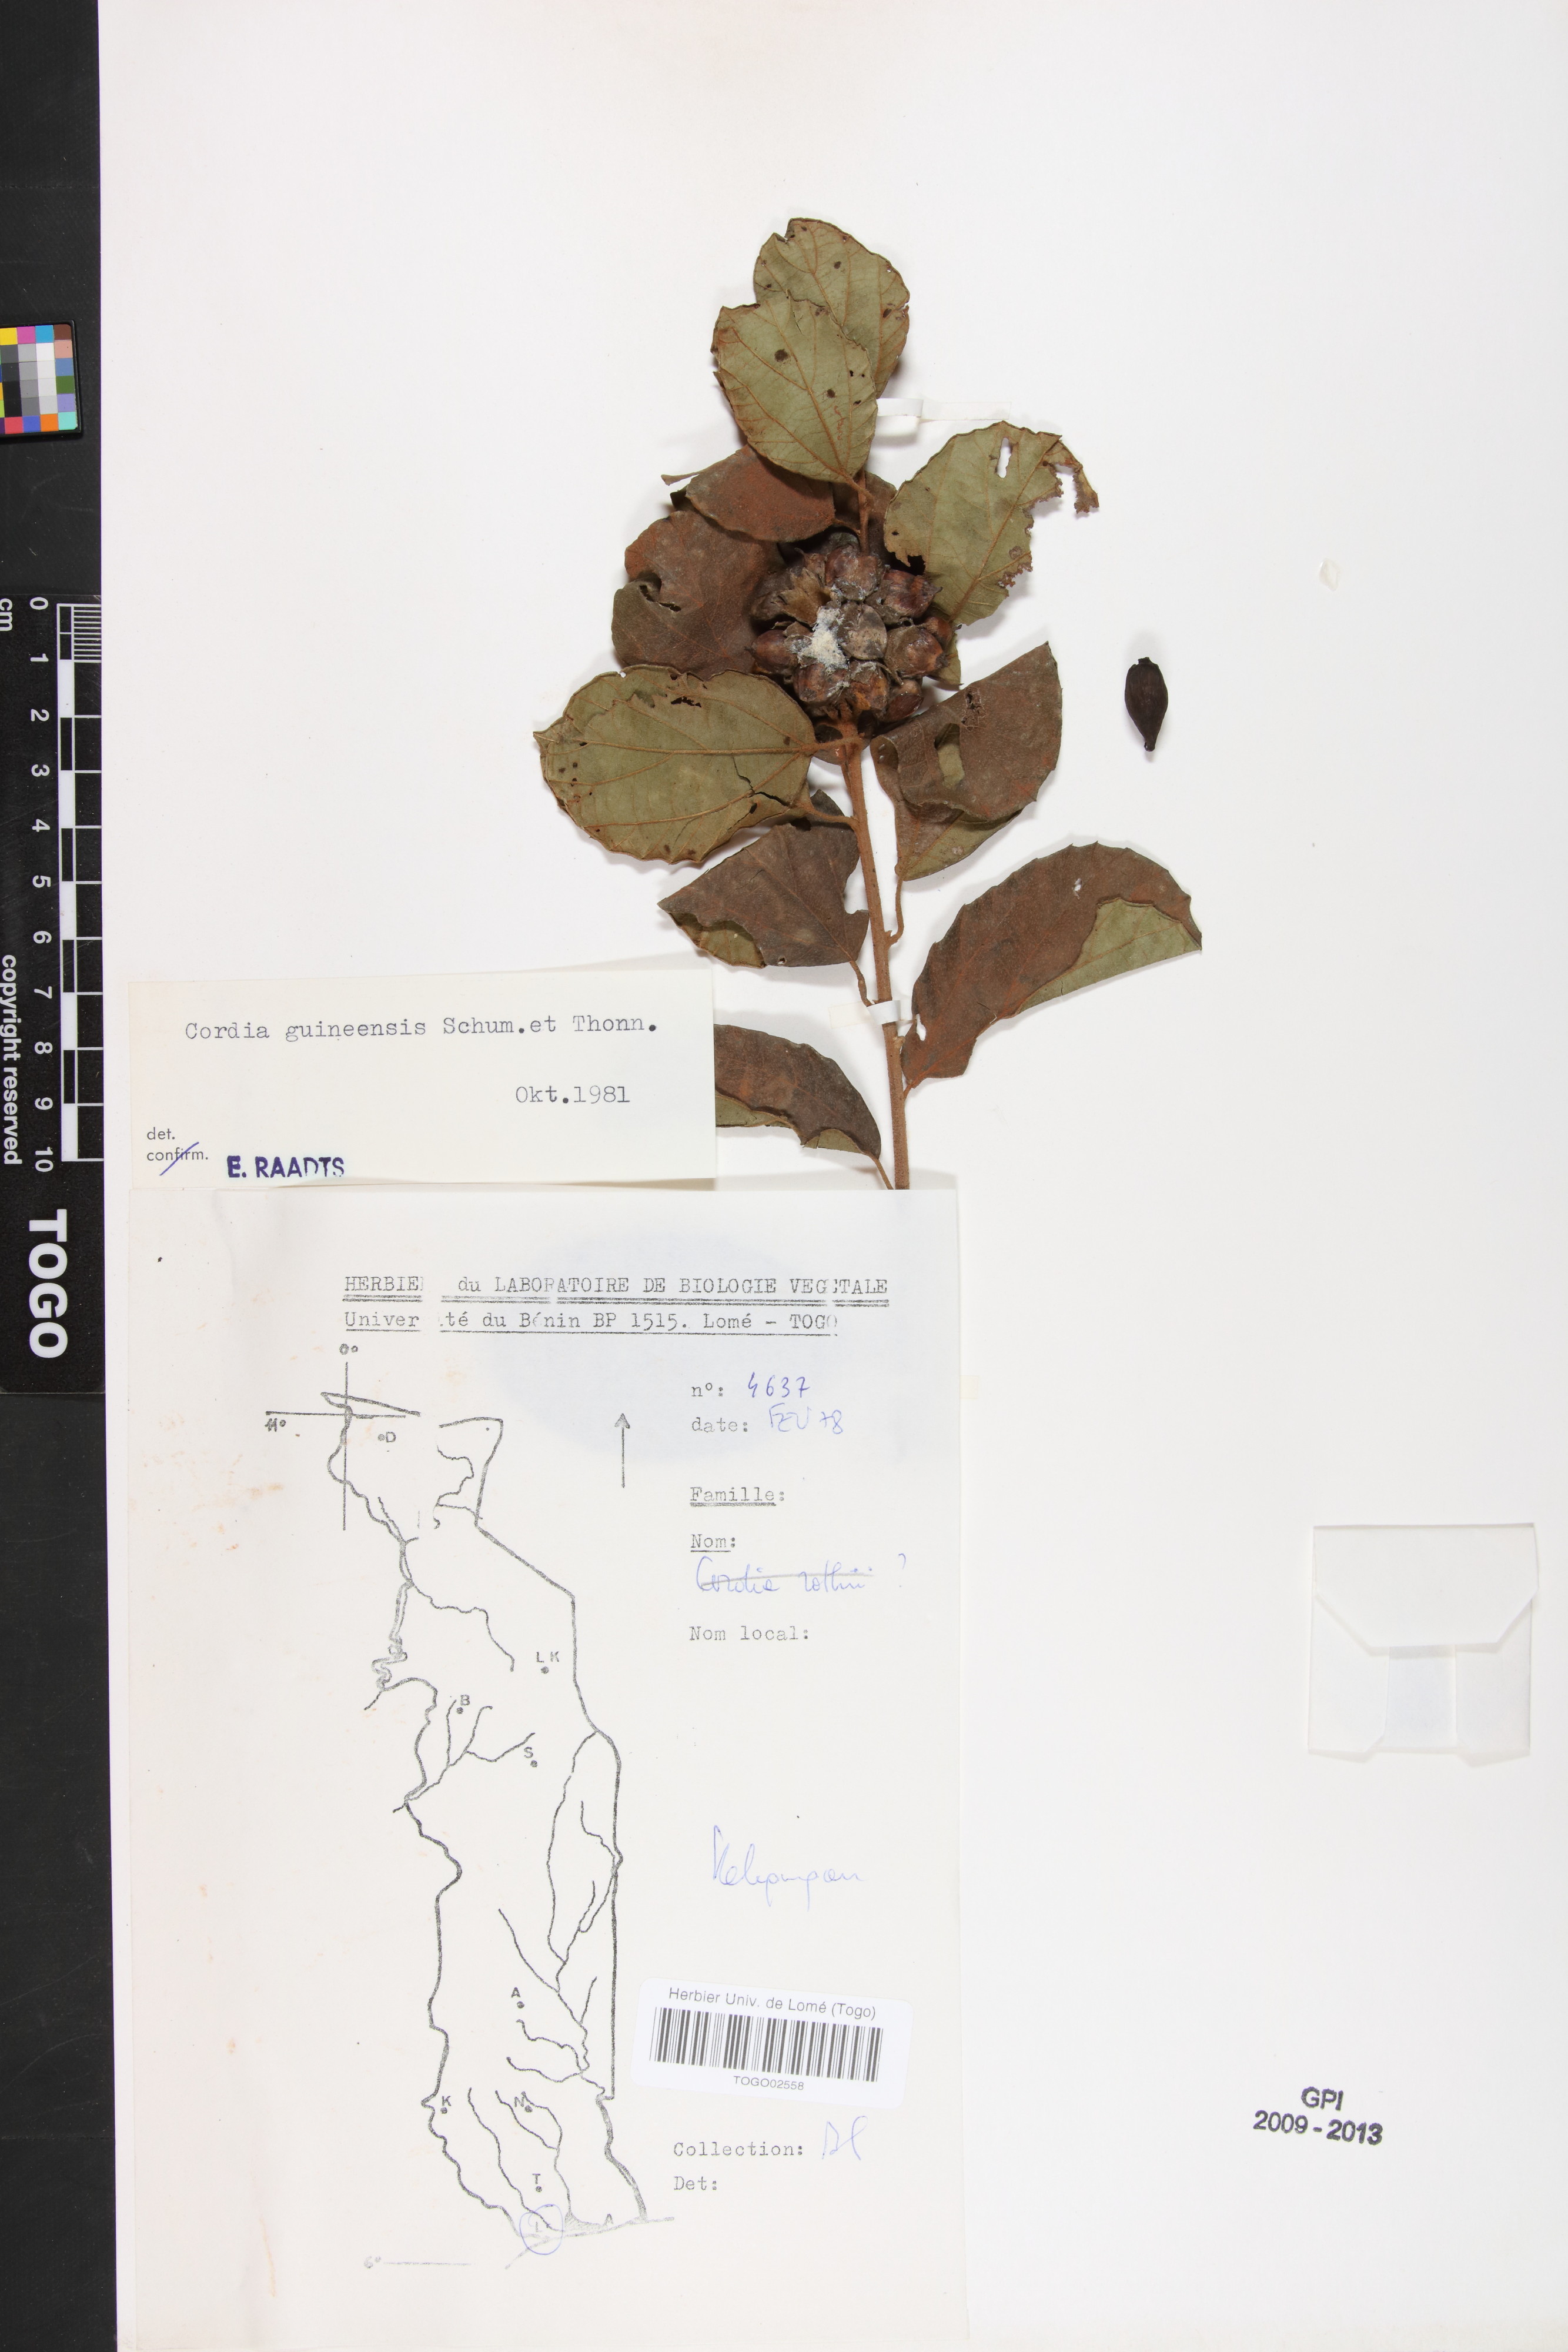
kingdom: Plantae
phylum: Tracheophyta
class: Magnoliopsida
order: Boraginales
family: Cordiaceae
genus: Cordia
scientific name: Cordia guineensis
